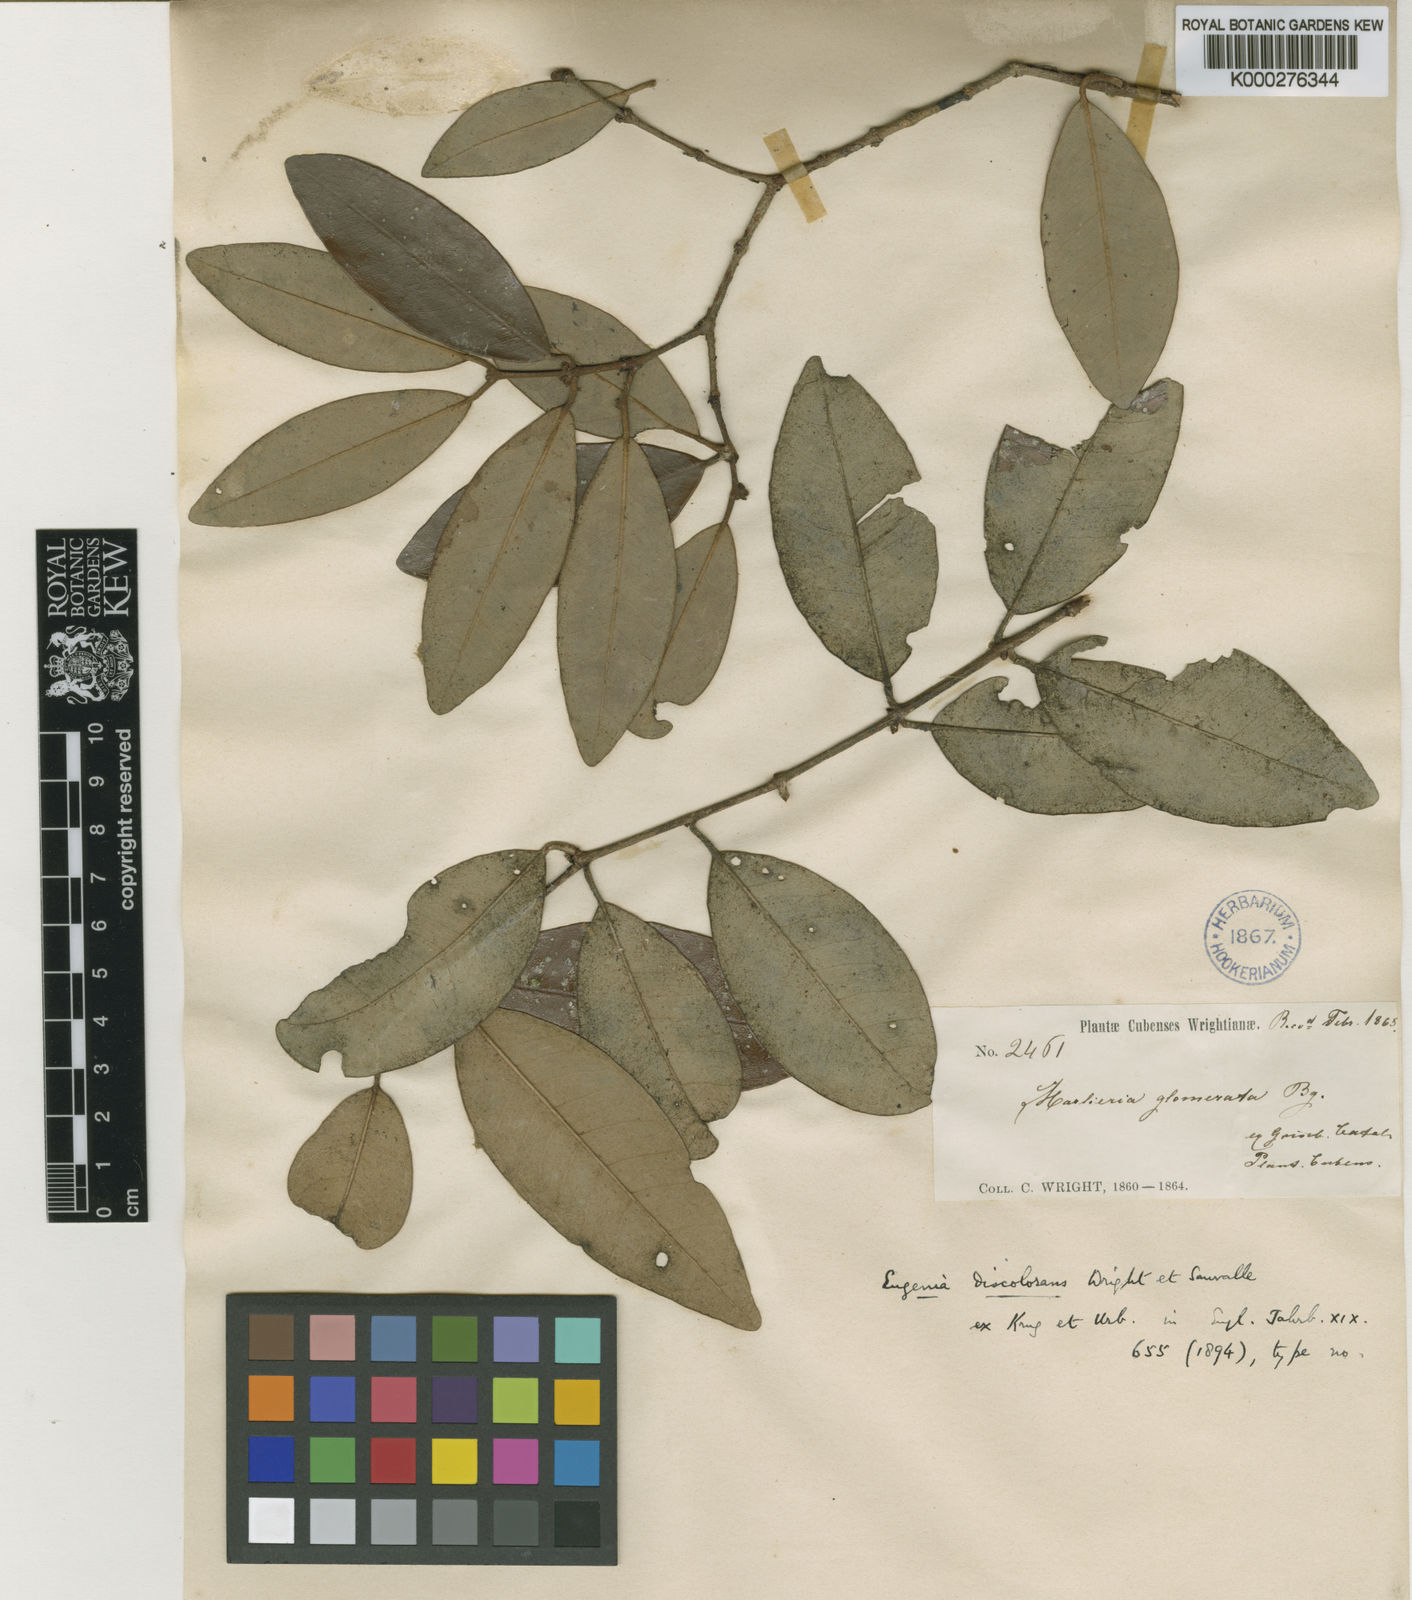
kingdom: Plantae
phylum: Tracheophyta
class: Magnoliopsida
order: Myrtales
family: Myrtaceae
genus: Eugenia
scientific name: Eugenia discolorans
